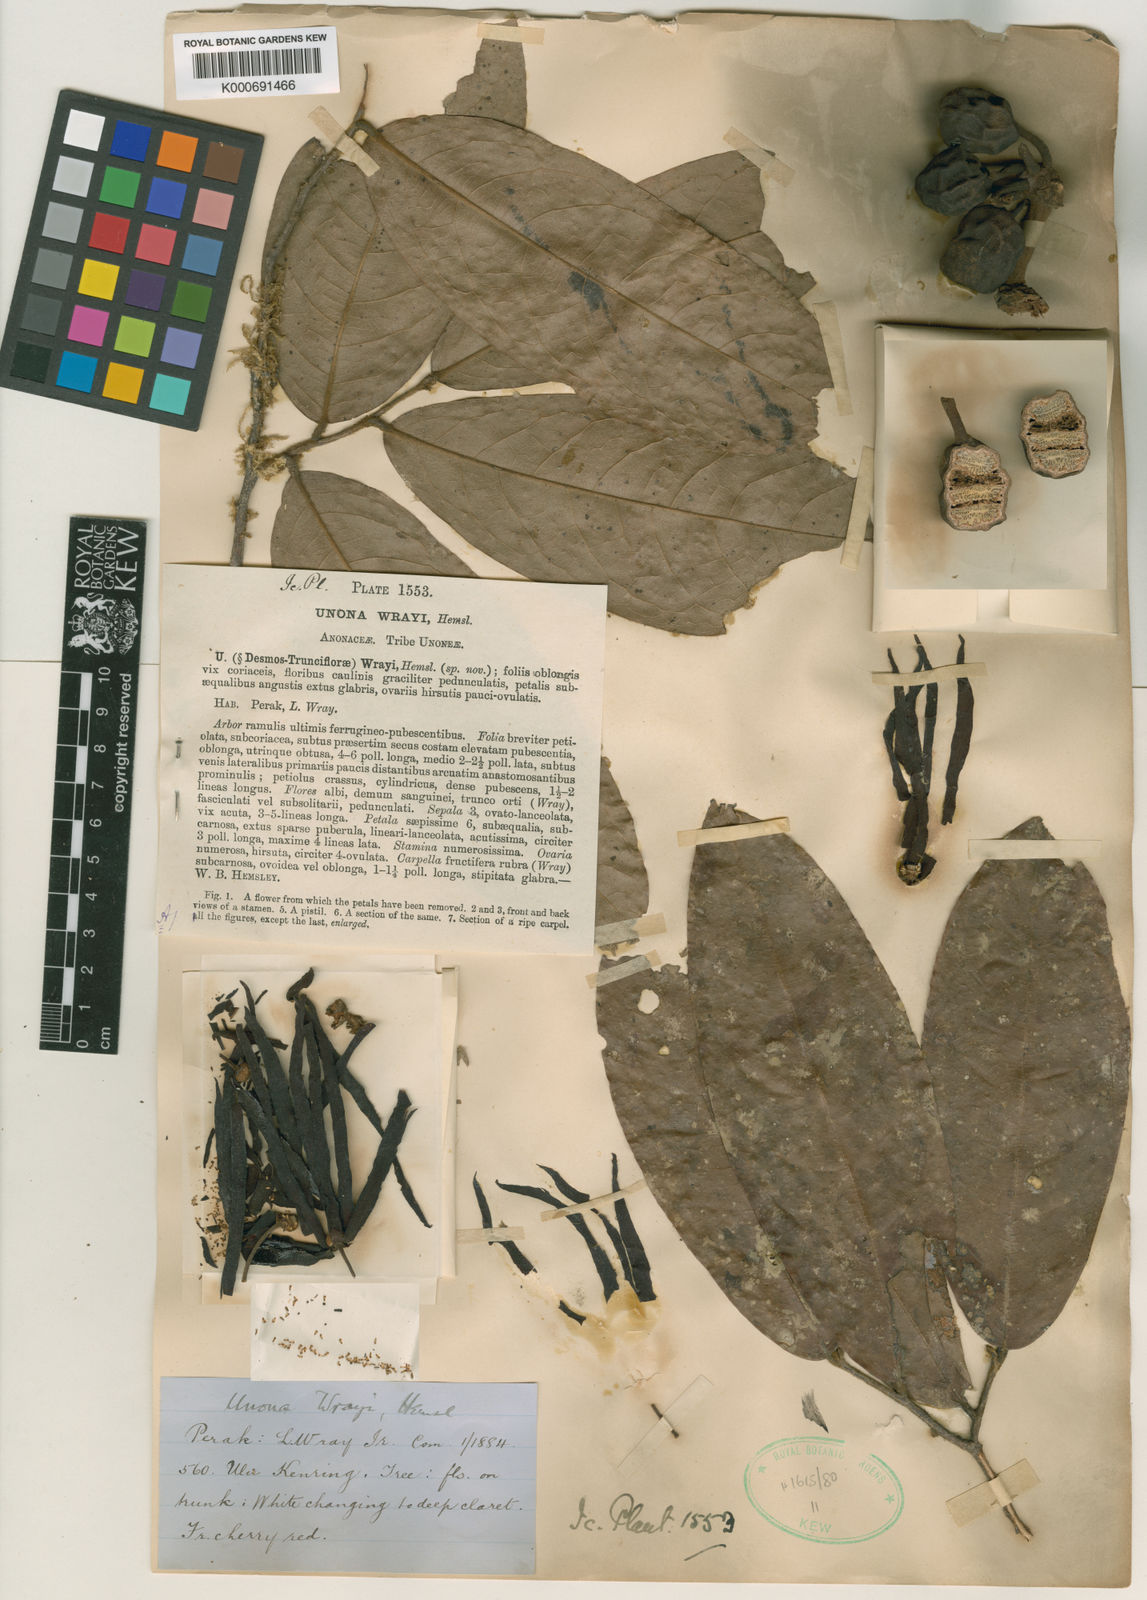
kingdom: Plantae
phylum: Tracheophyta
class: Magnoliopsida
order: Magnoliales
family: Annonaceae
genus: Polyalthia
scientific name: Polyalthia
